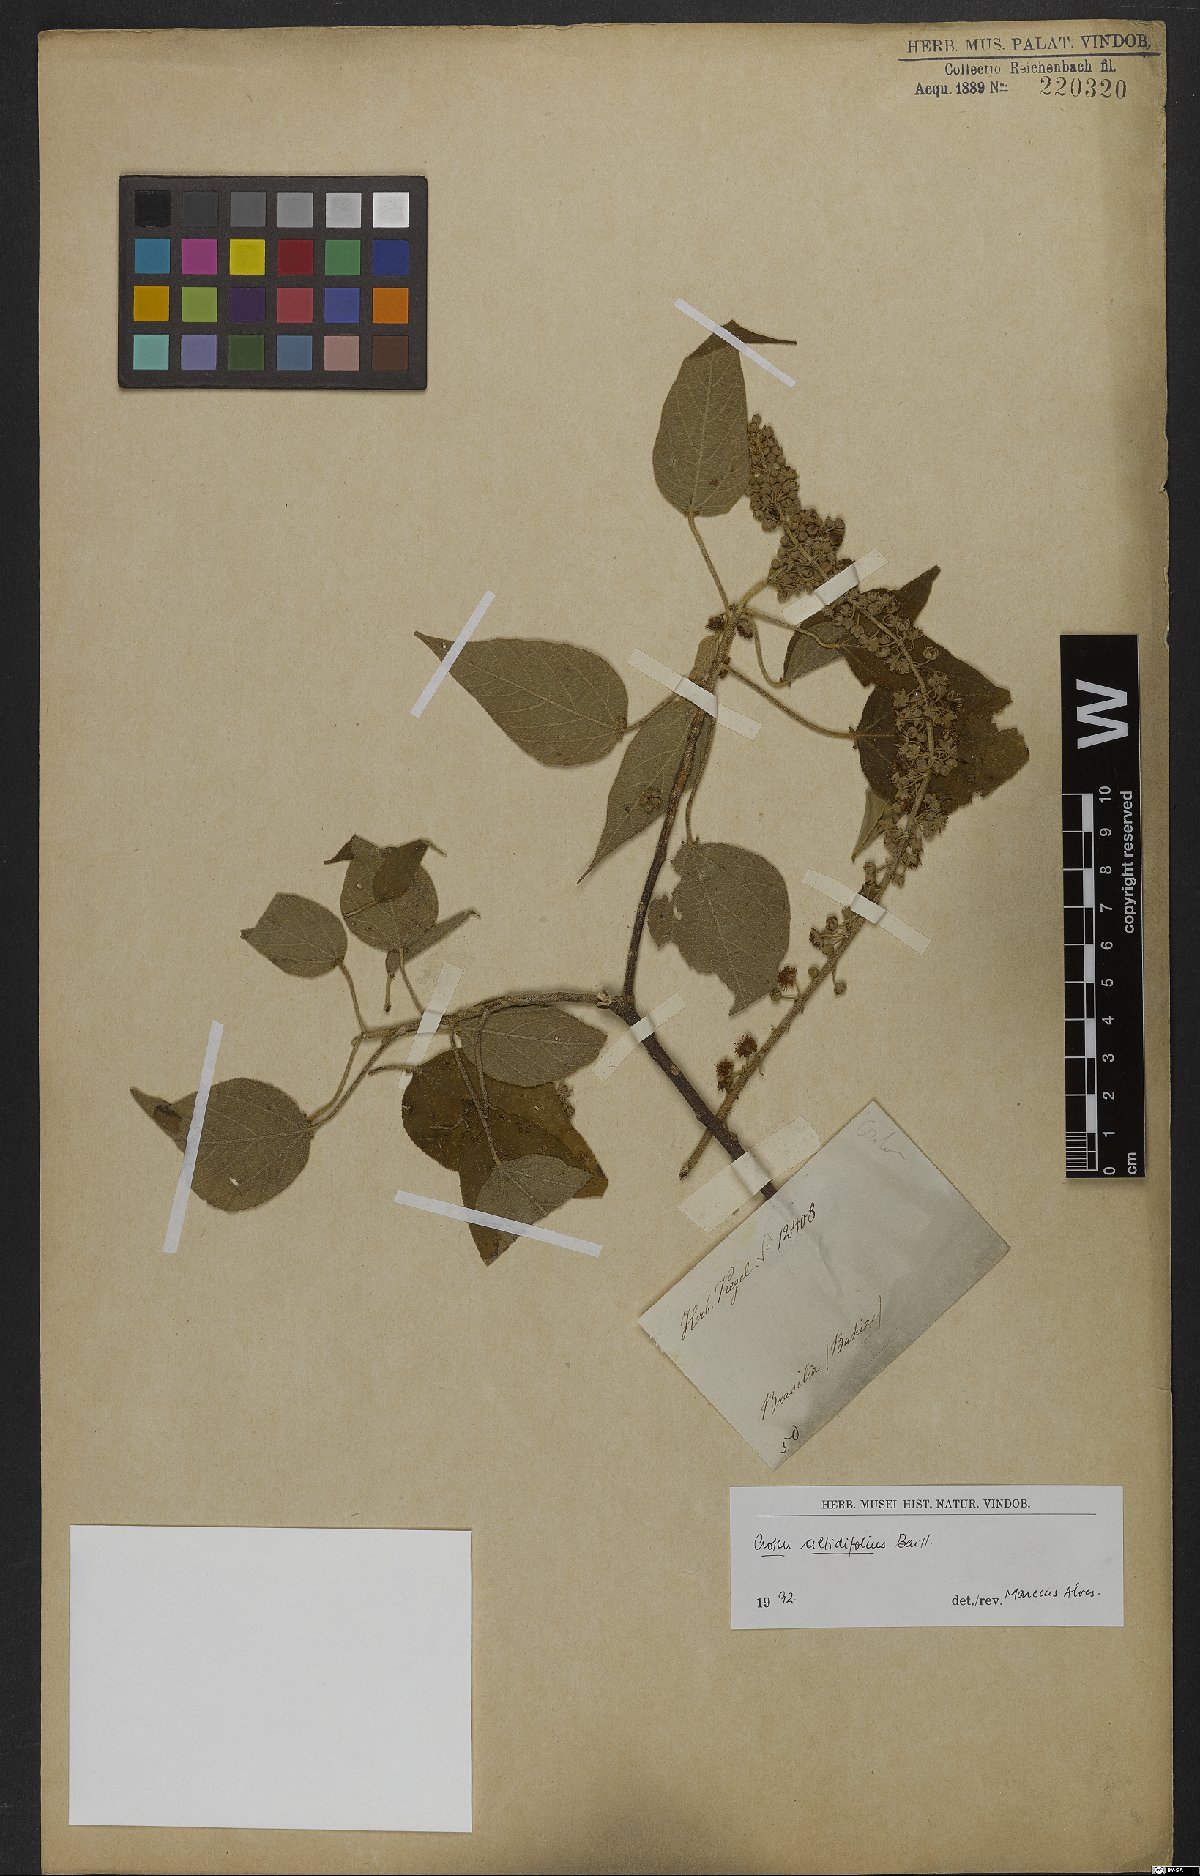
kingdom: Plantae
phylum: Tracheophyta
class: Magnoliopsida
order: Malpighiales
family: Euphorbiaceae
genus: Croton
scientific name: Croton celtidifolius
